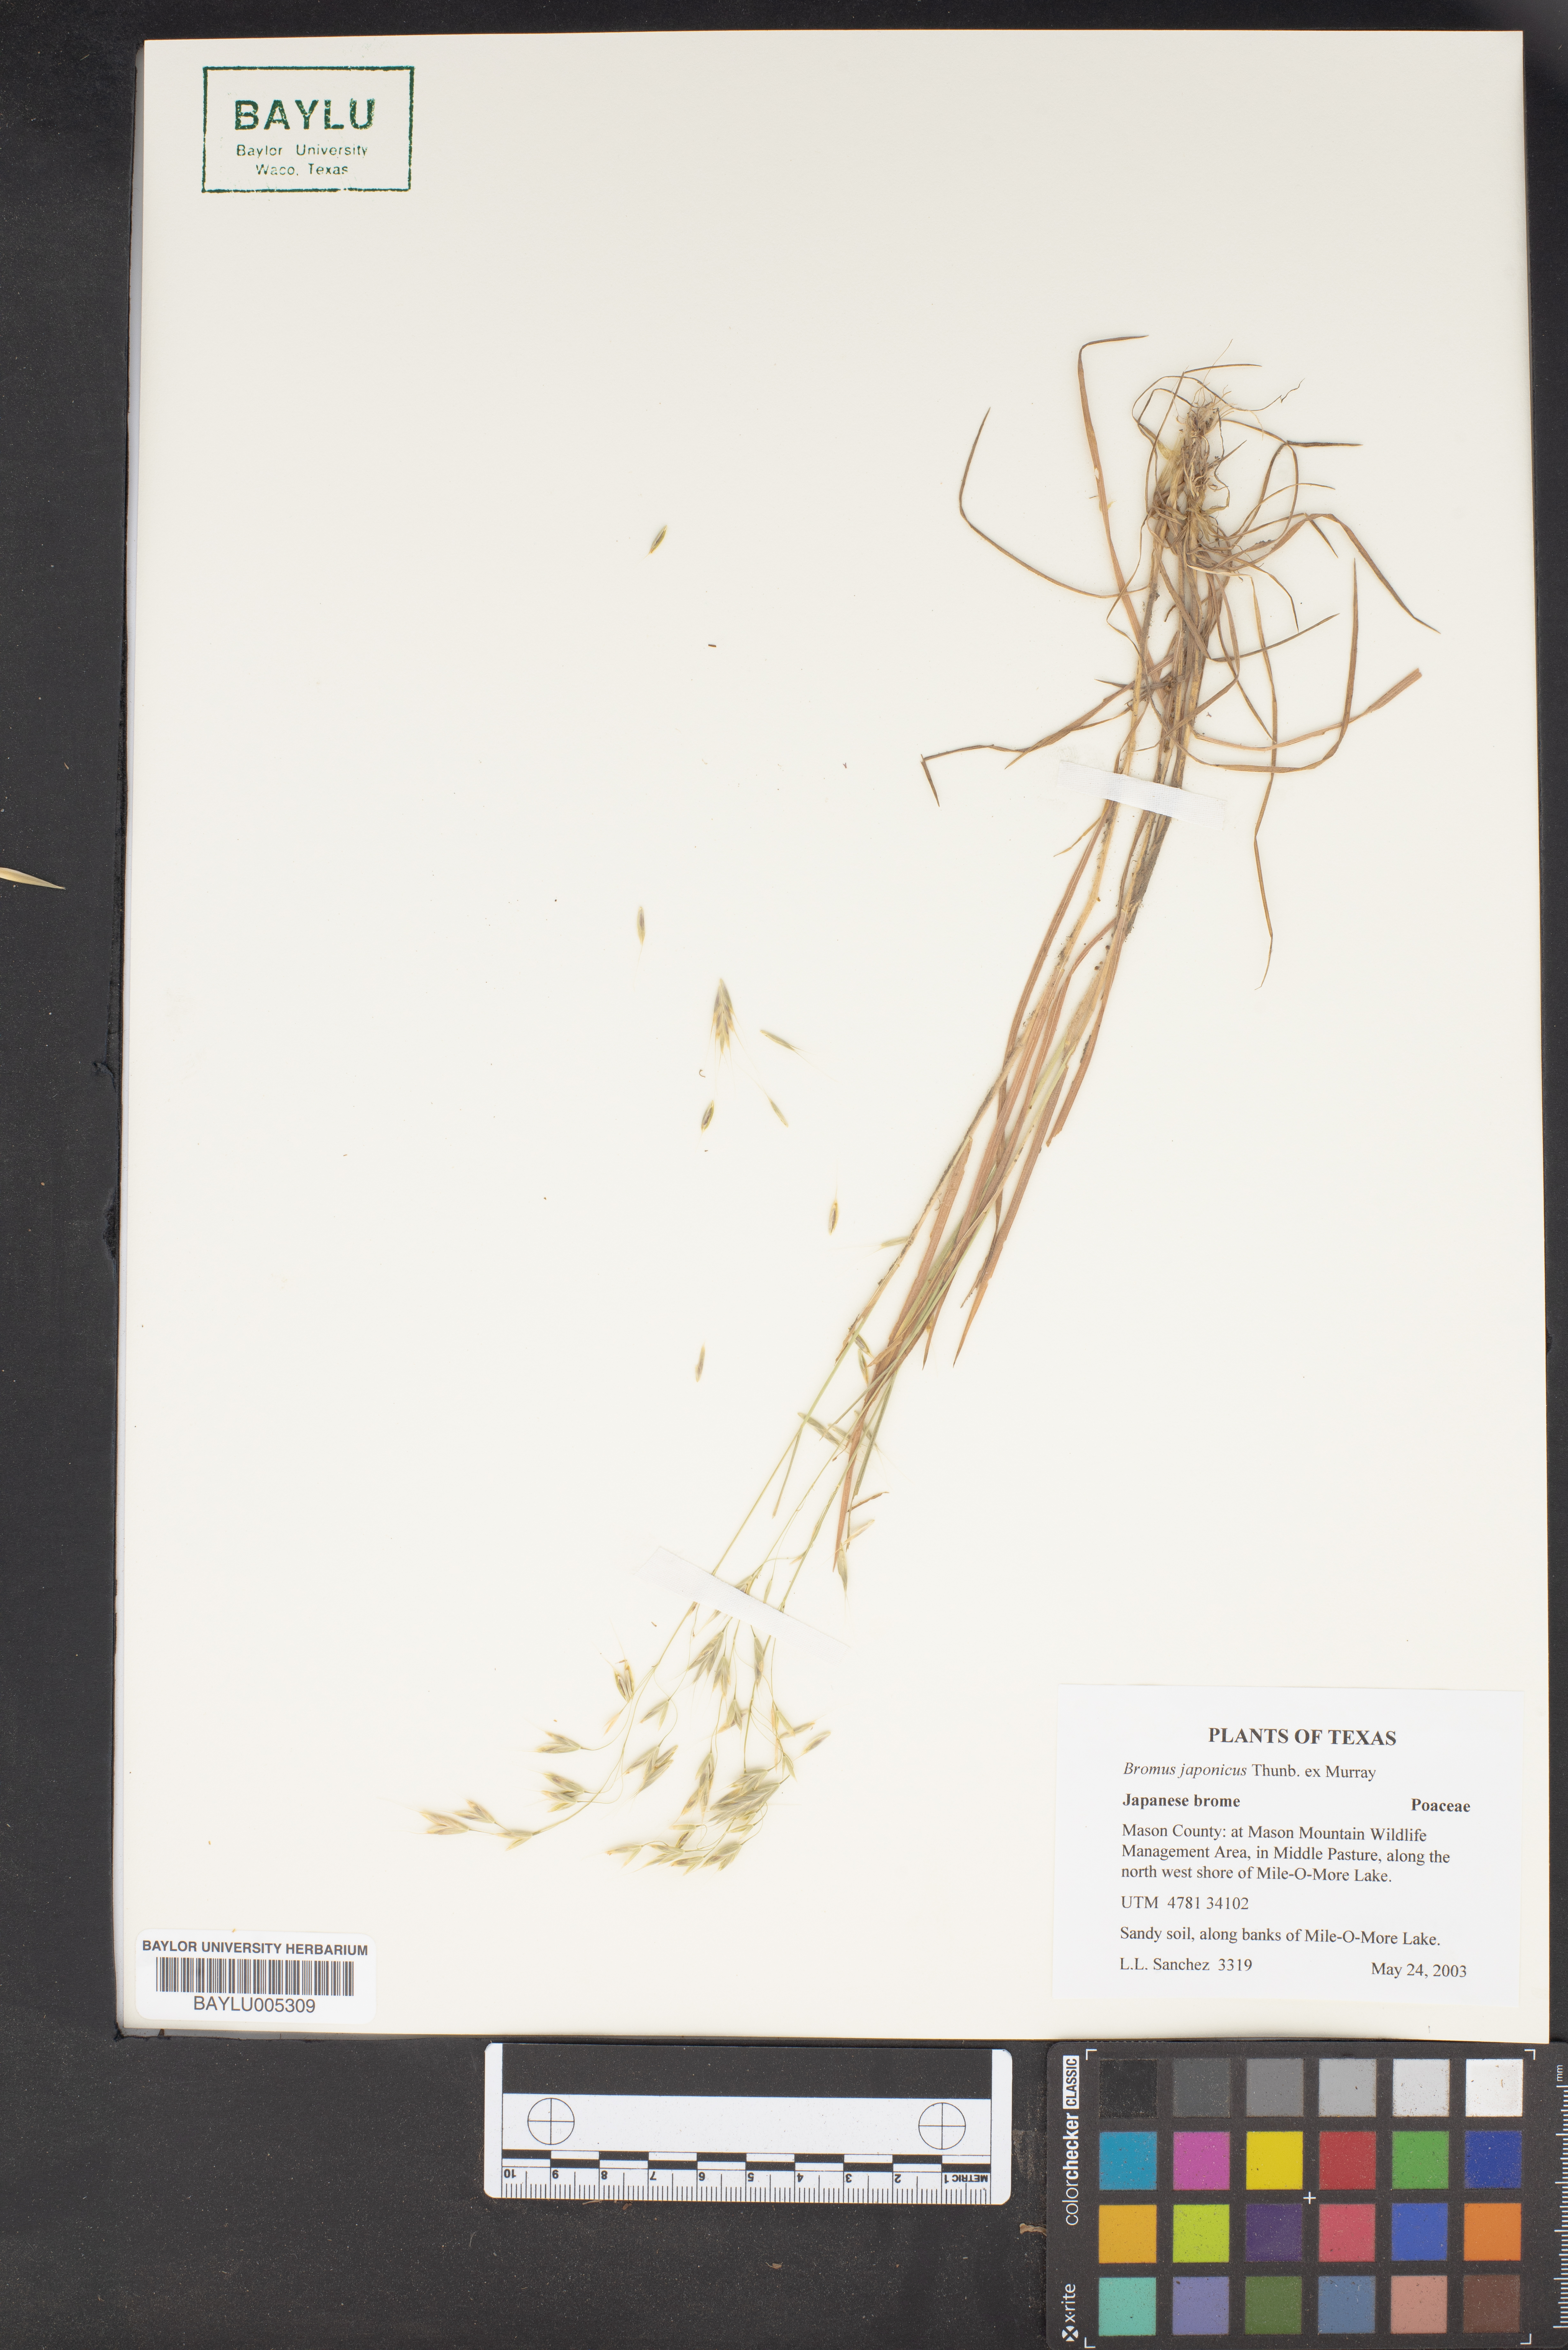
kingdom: Plantae
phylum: Tracheophyta
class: Liliopsida
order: Poales
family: Poaceae
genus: Bromus
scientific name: Bromus japonicus
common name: Japanese brome
